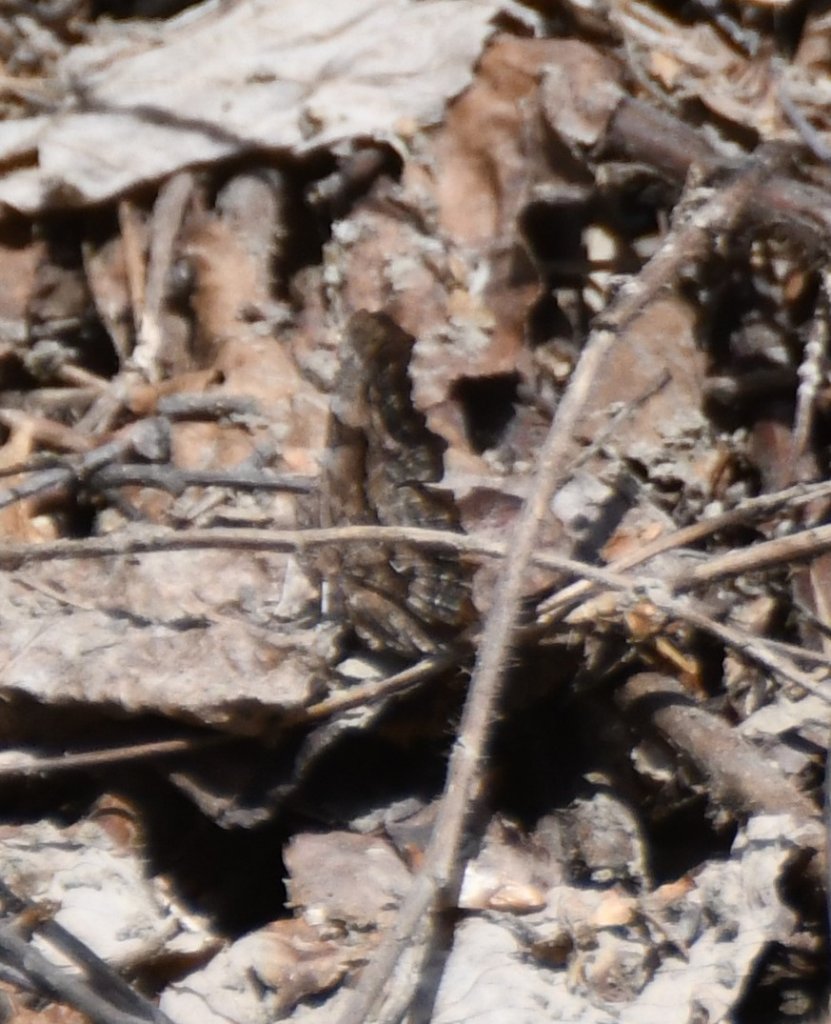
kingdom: Animalia
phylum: Arthropoda
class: Insecta
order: Lepidoptera
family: Nymphalidae
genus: Polygonia
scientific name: Polygonia faunus
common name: Green Comma
